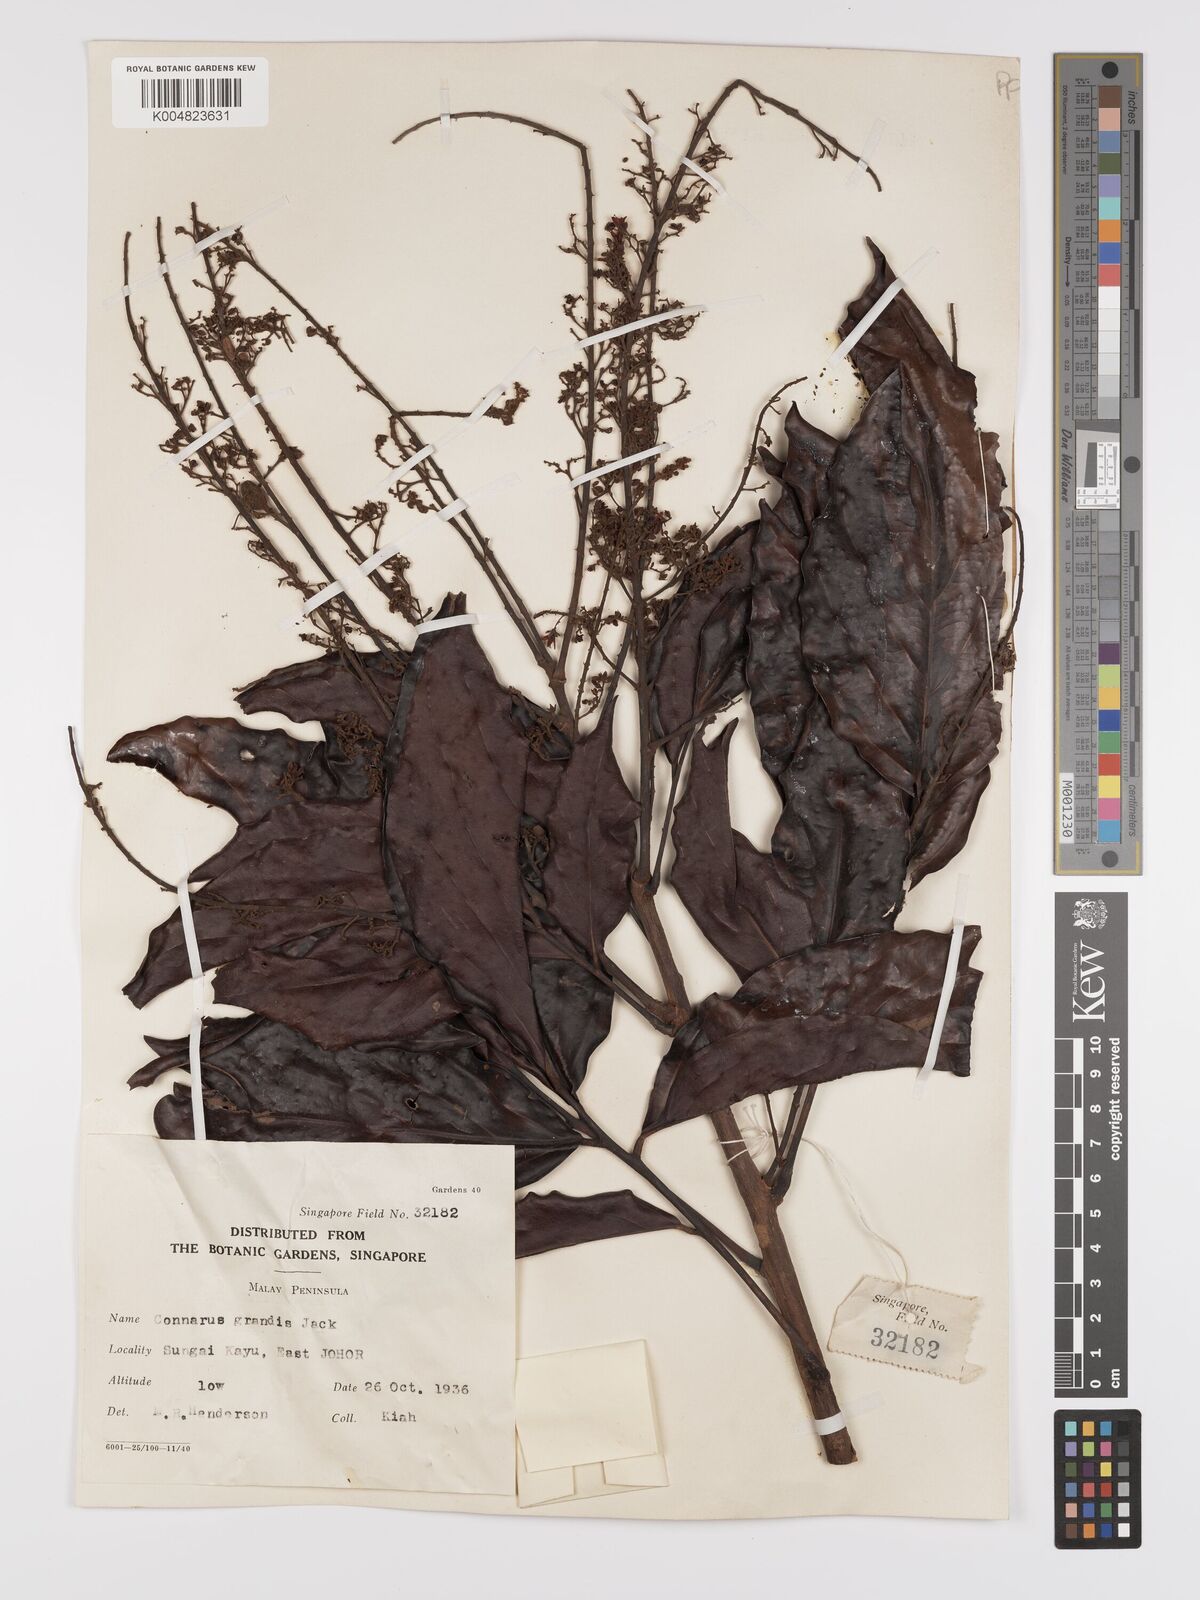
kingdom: Plantae
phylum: Tracheophyta
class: Magnoliopsida
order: Oxalidales
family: Connaraceae
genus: Connarus
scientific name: Connarus grandis
